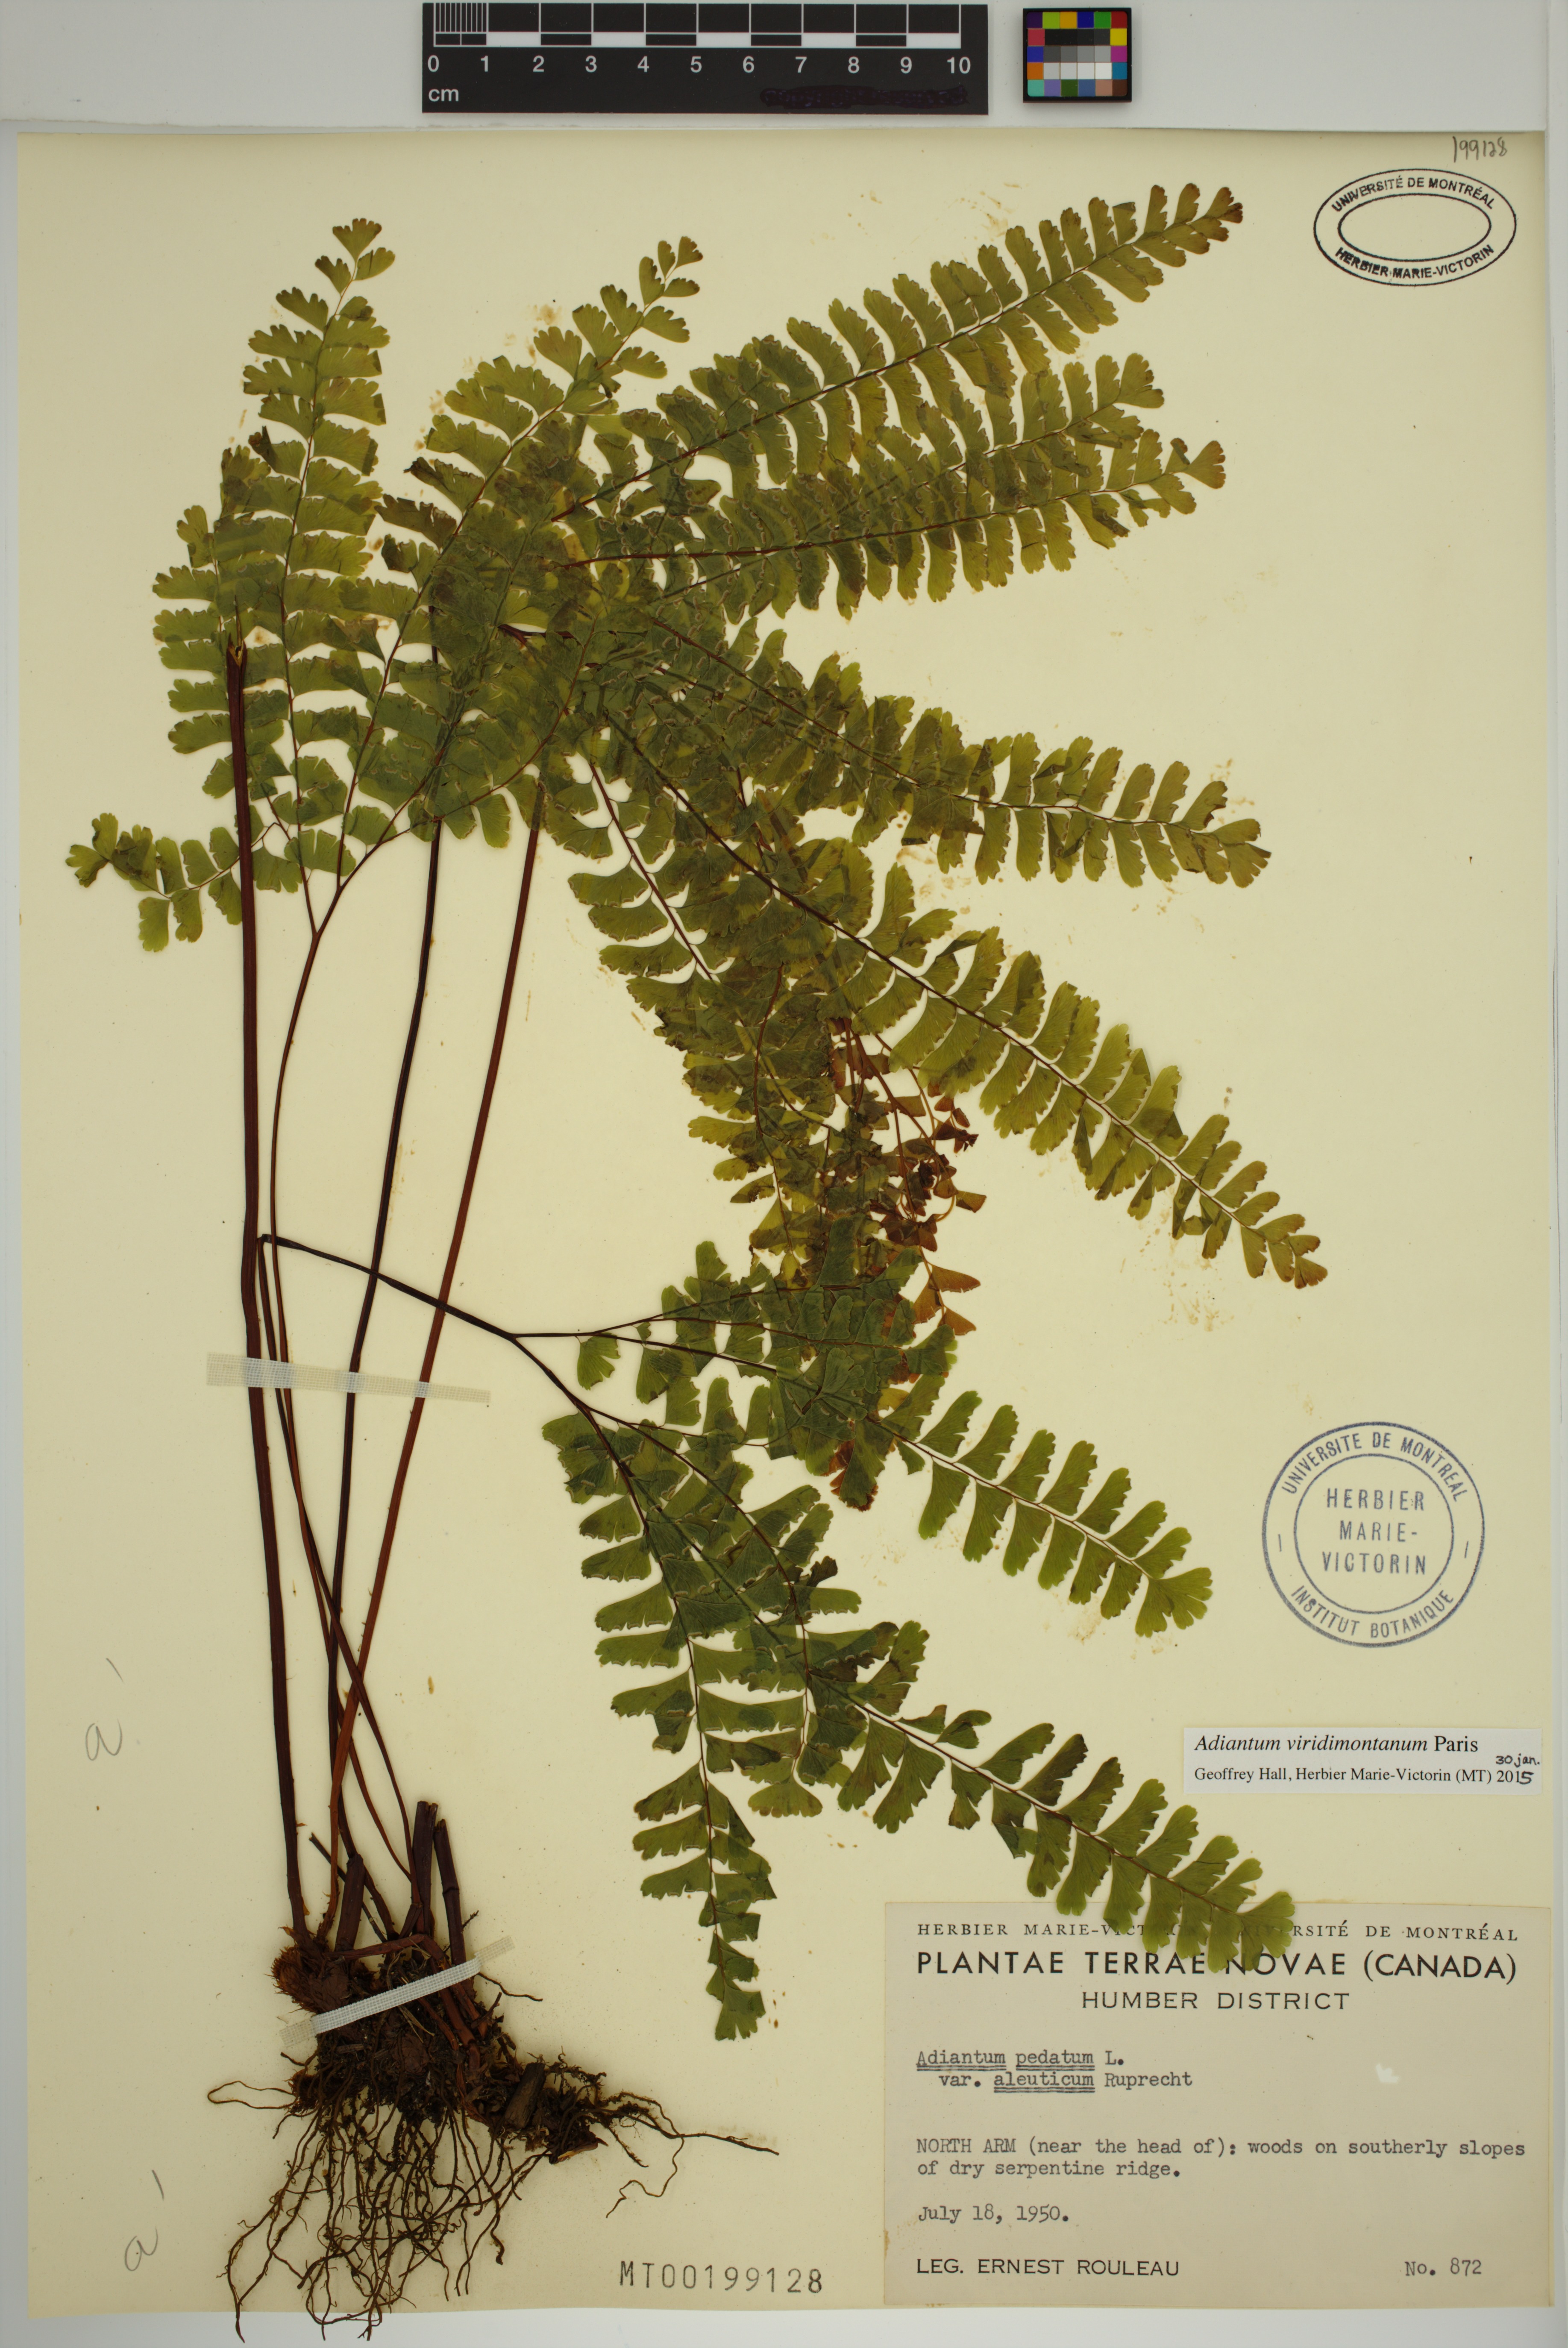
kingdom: Plantae
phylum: Tracheophyta
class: Polypodiopsida
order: Polypodiales
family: Pteridaceae
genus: Adiantum
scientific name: Adiantum viridimontanum
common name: Green mountain maidenhair
